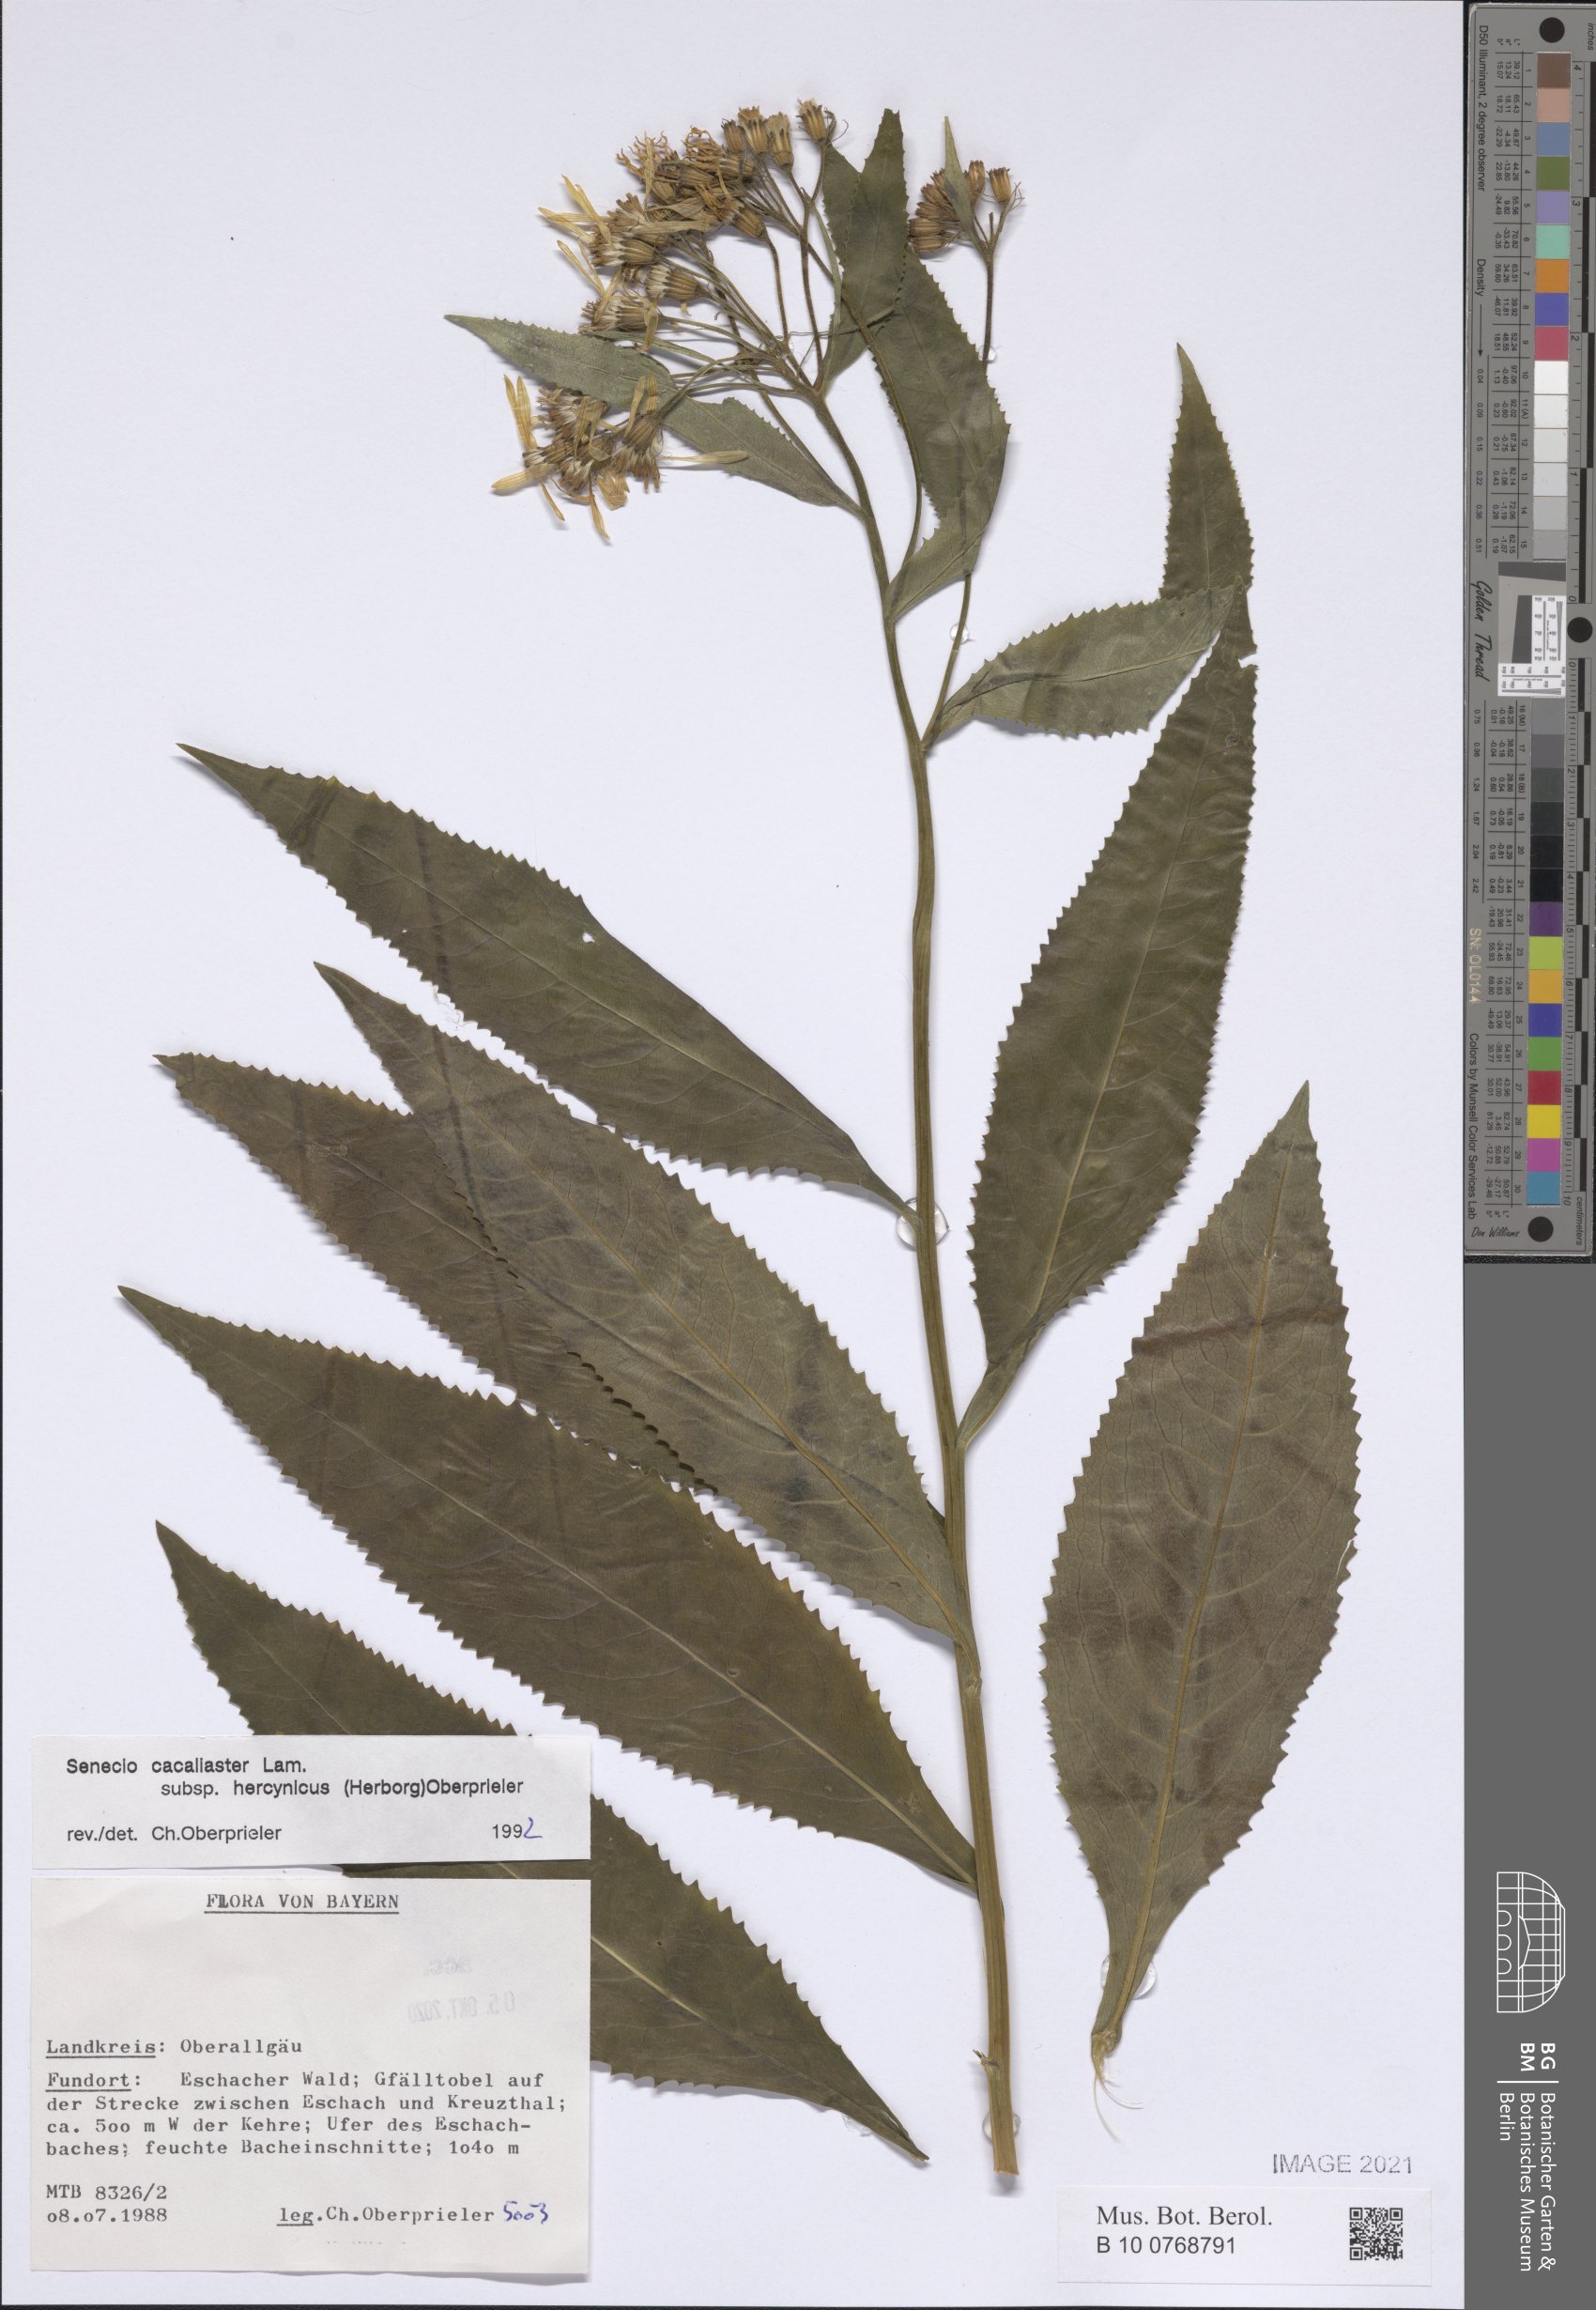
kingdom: Plantae
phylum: Tracheophyta
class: Magnoliopsida
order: Asterales
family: Asteraceae
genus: Senecio
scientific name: Senecio hercynicus
